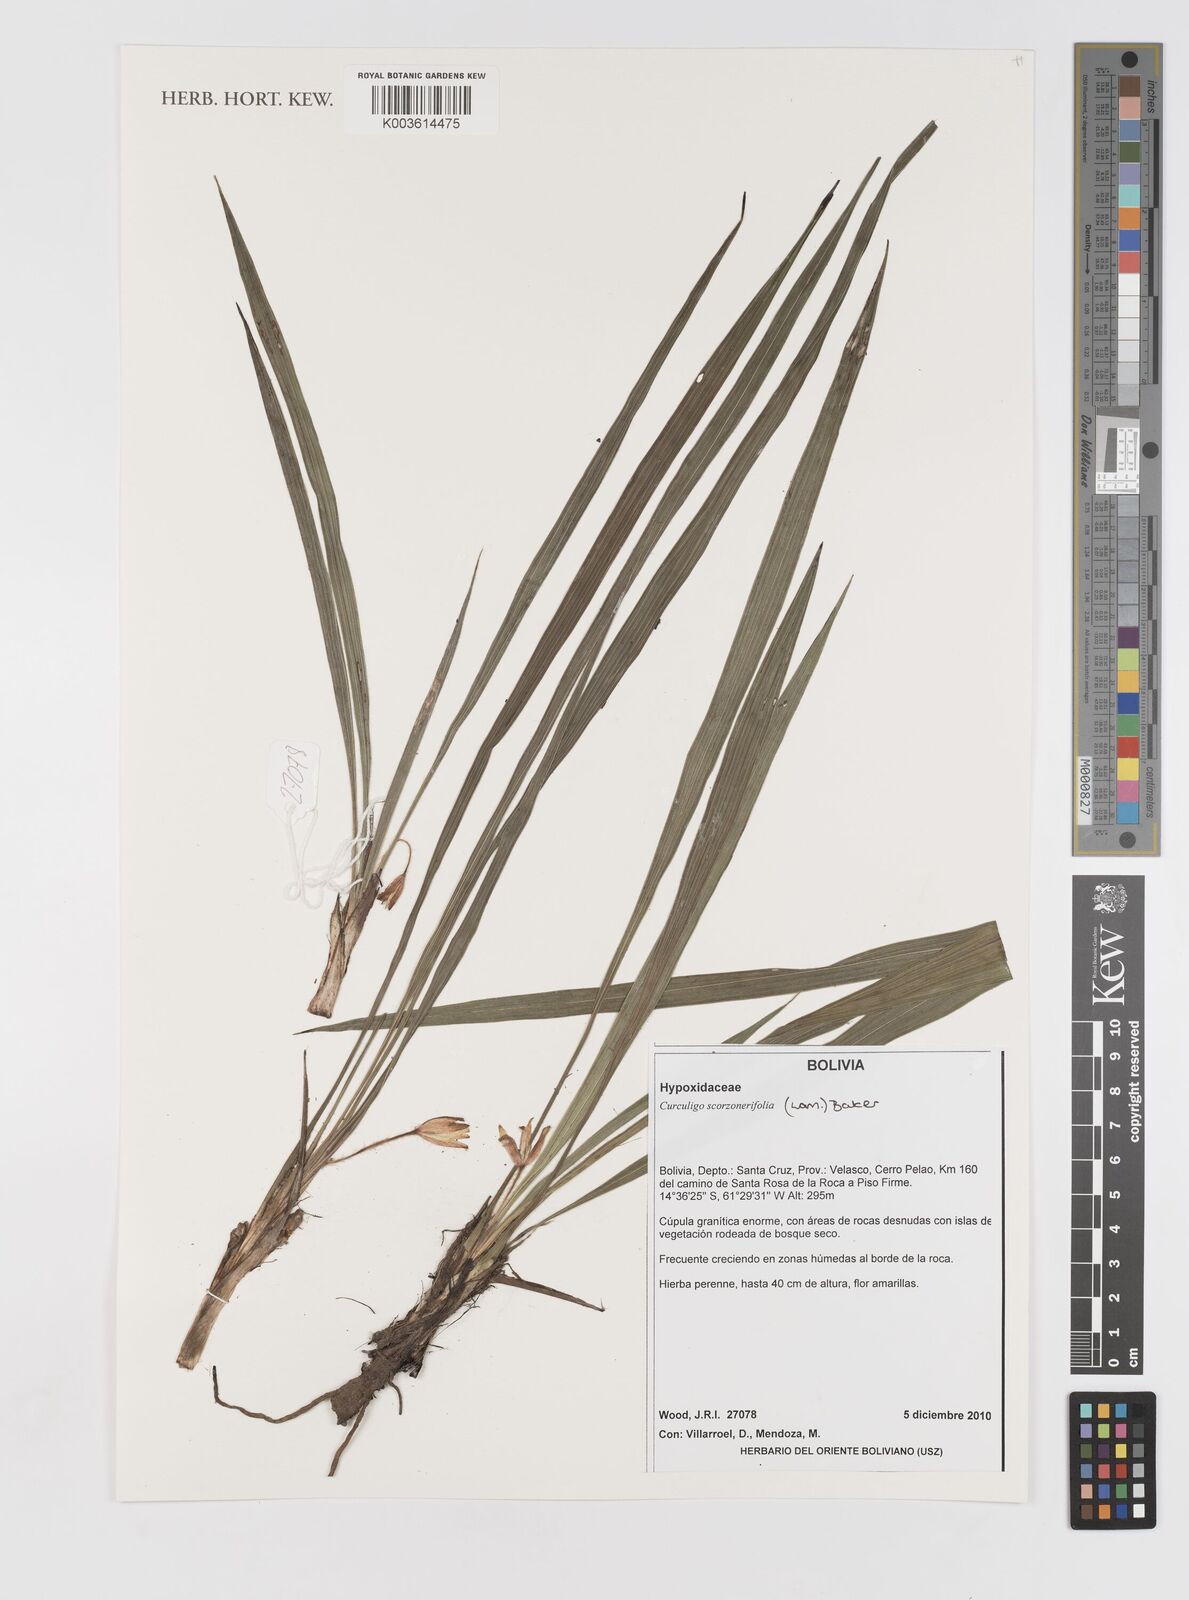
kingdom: Plantae
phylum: Tracheophyta
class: Liliopsida
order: Asparagales
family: Hypoxidaceae
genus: Curculigo
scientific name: Curculigo scorzonerifolia
